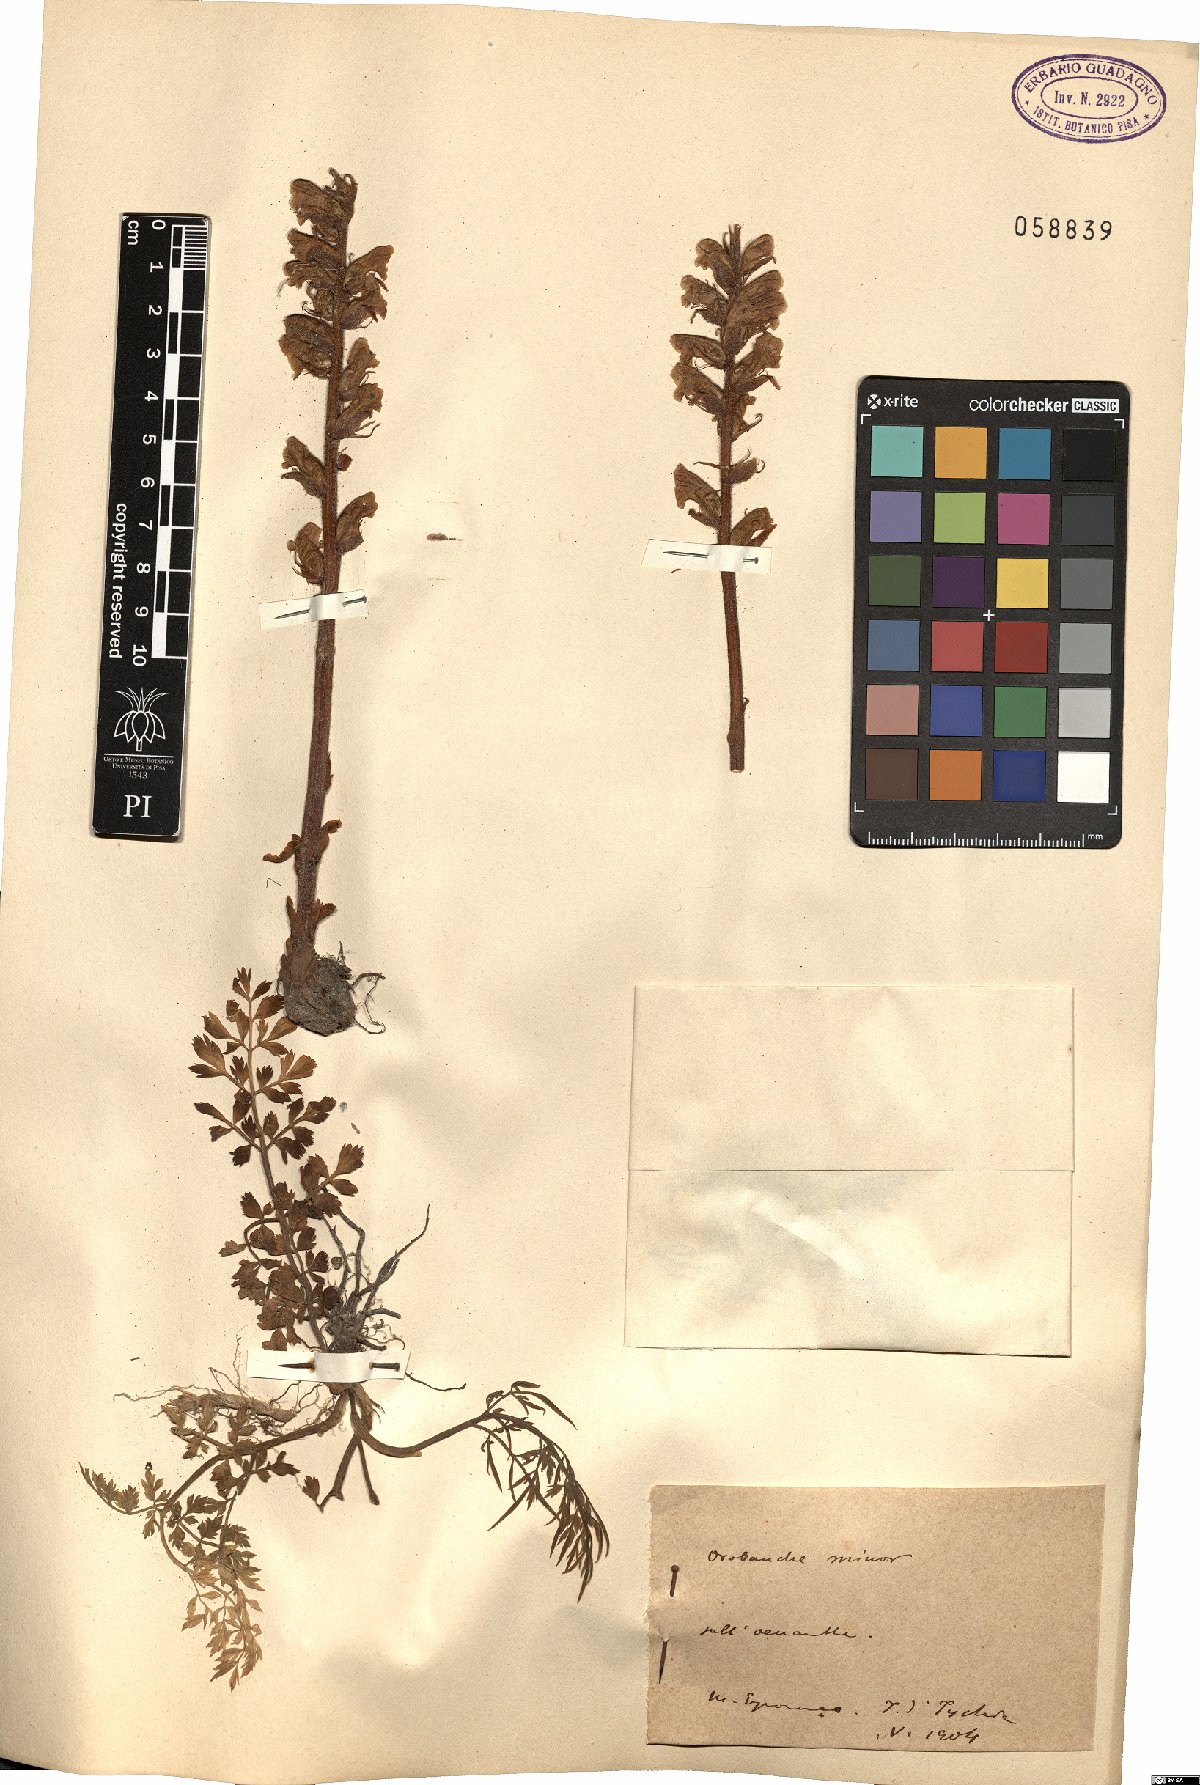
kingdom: Plantae
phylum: Tracheophyta
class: Magnoliopsida
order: Lamiales
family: Orobanchaceae
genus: Orobanche
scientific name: Orobanche minor
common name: Common broomrape
